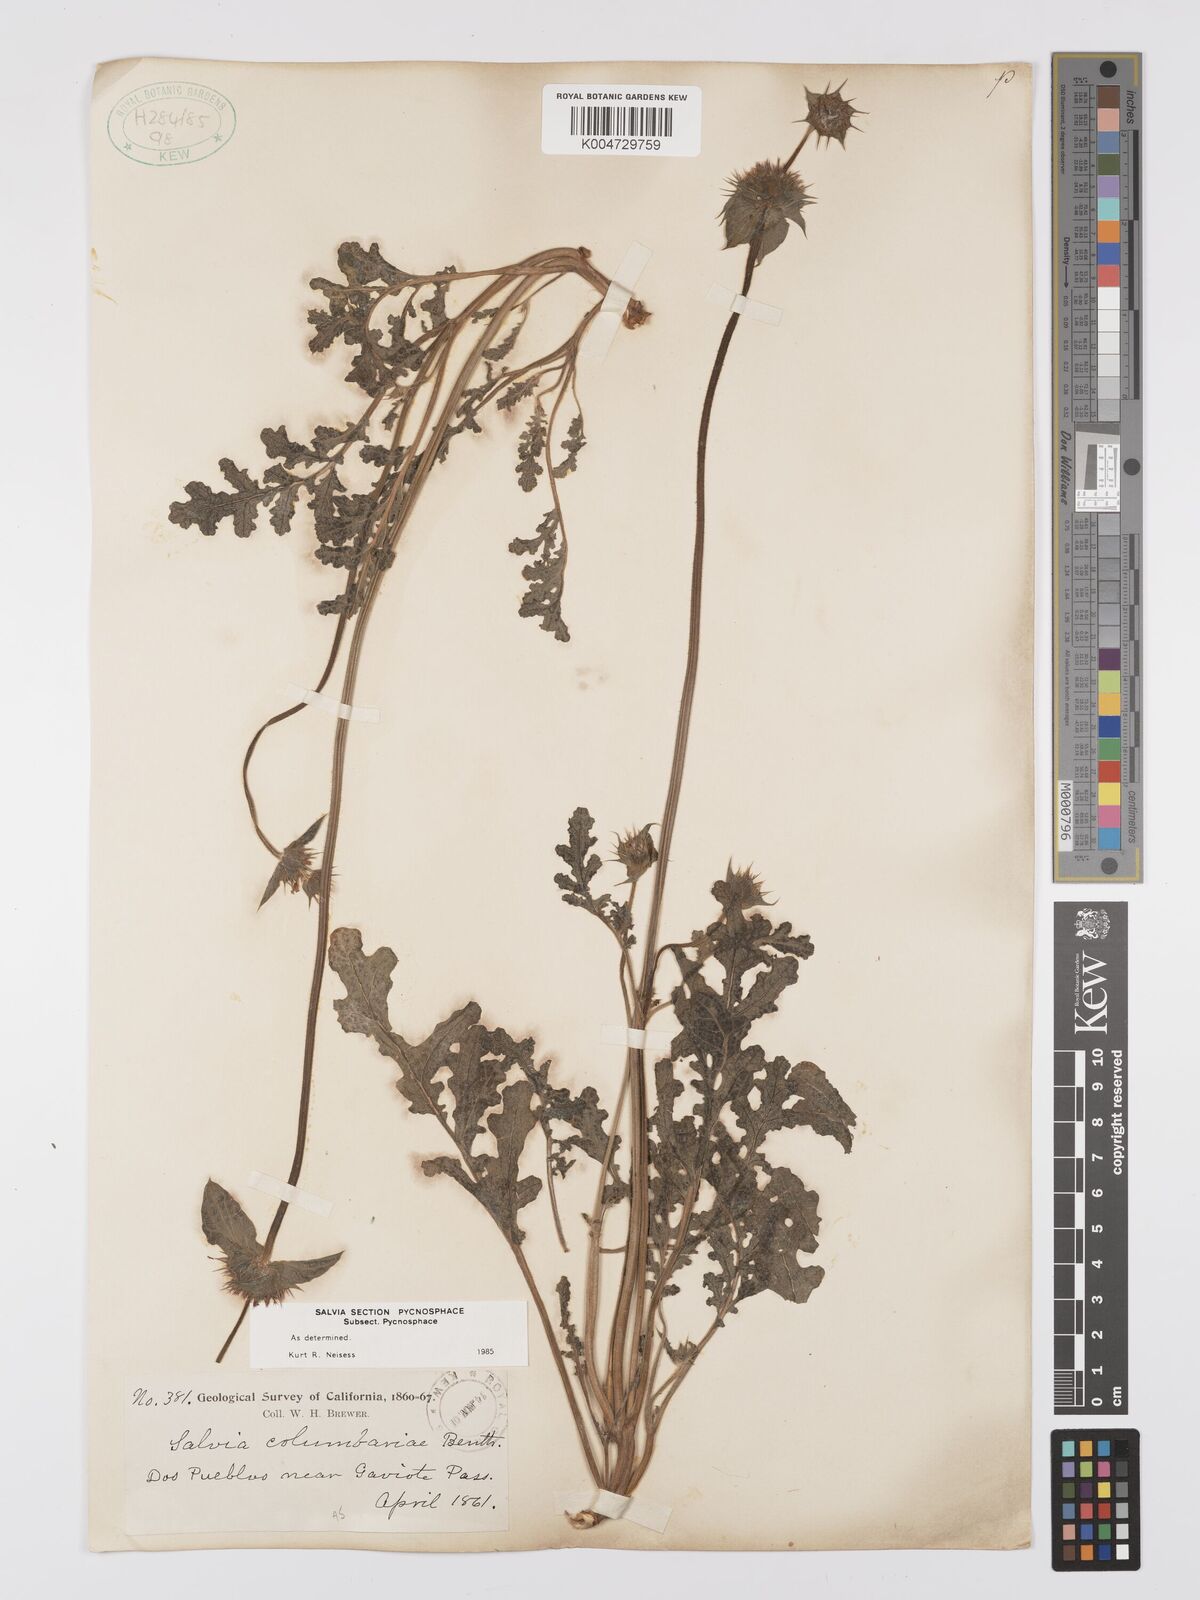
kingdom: Plantae
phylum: Tracheophyta
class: Magnoliopsida
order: Lamiales
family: Lamiaceae
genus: Salvia
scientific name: Salvia columbariae
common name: Chia
